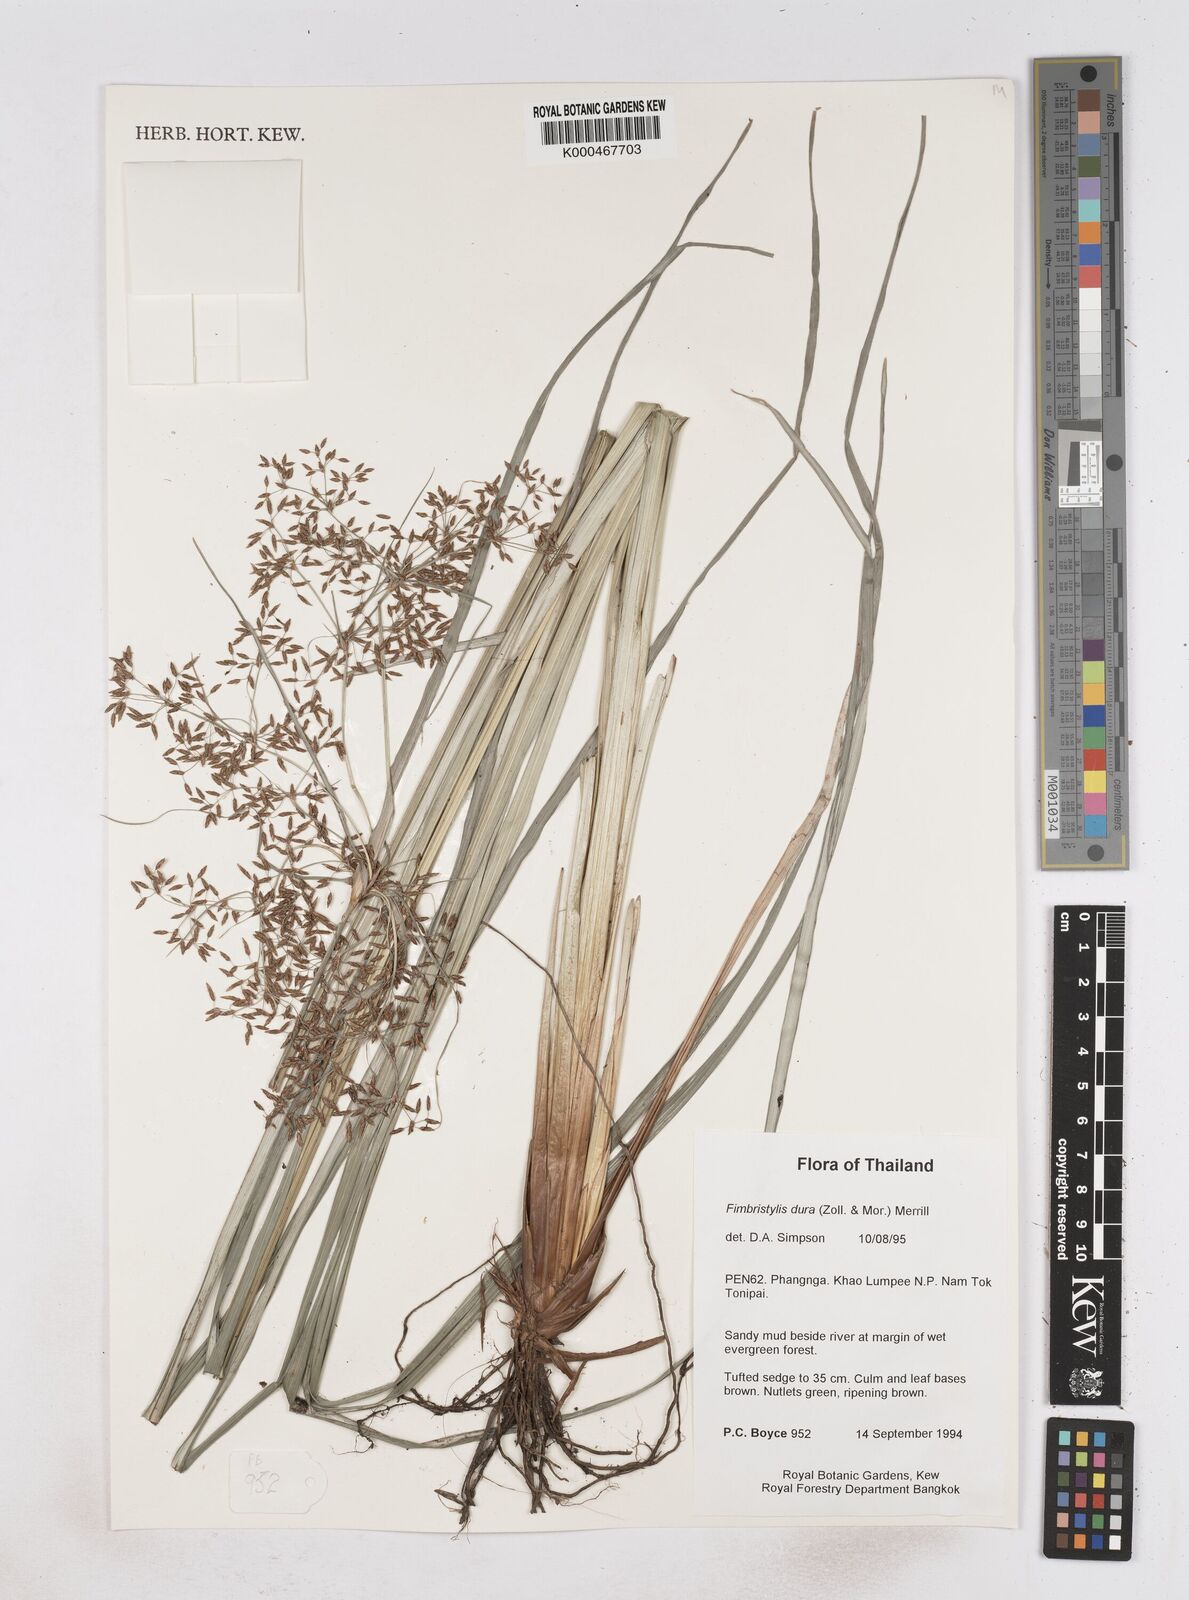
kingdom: Plantae
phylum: Tracheophyta
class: Liliopsida
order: Poales
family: Cyperaceae
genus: Fimbristylis
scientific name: Fimbristylis dura
